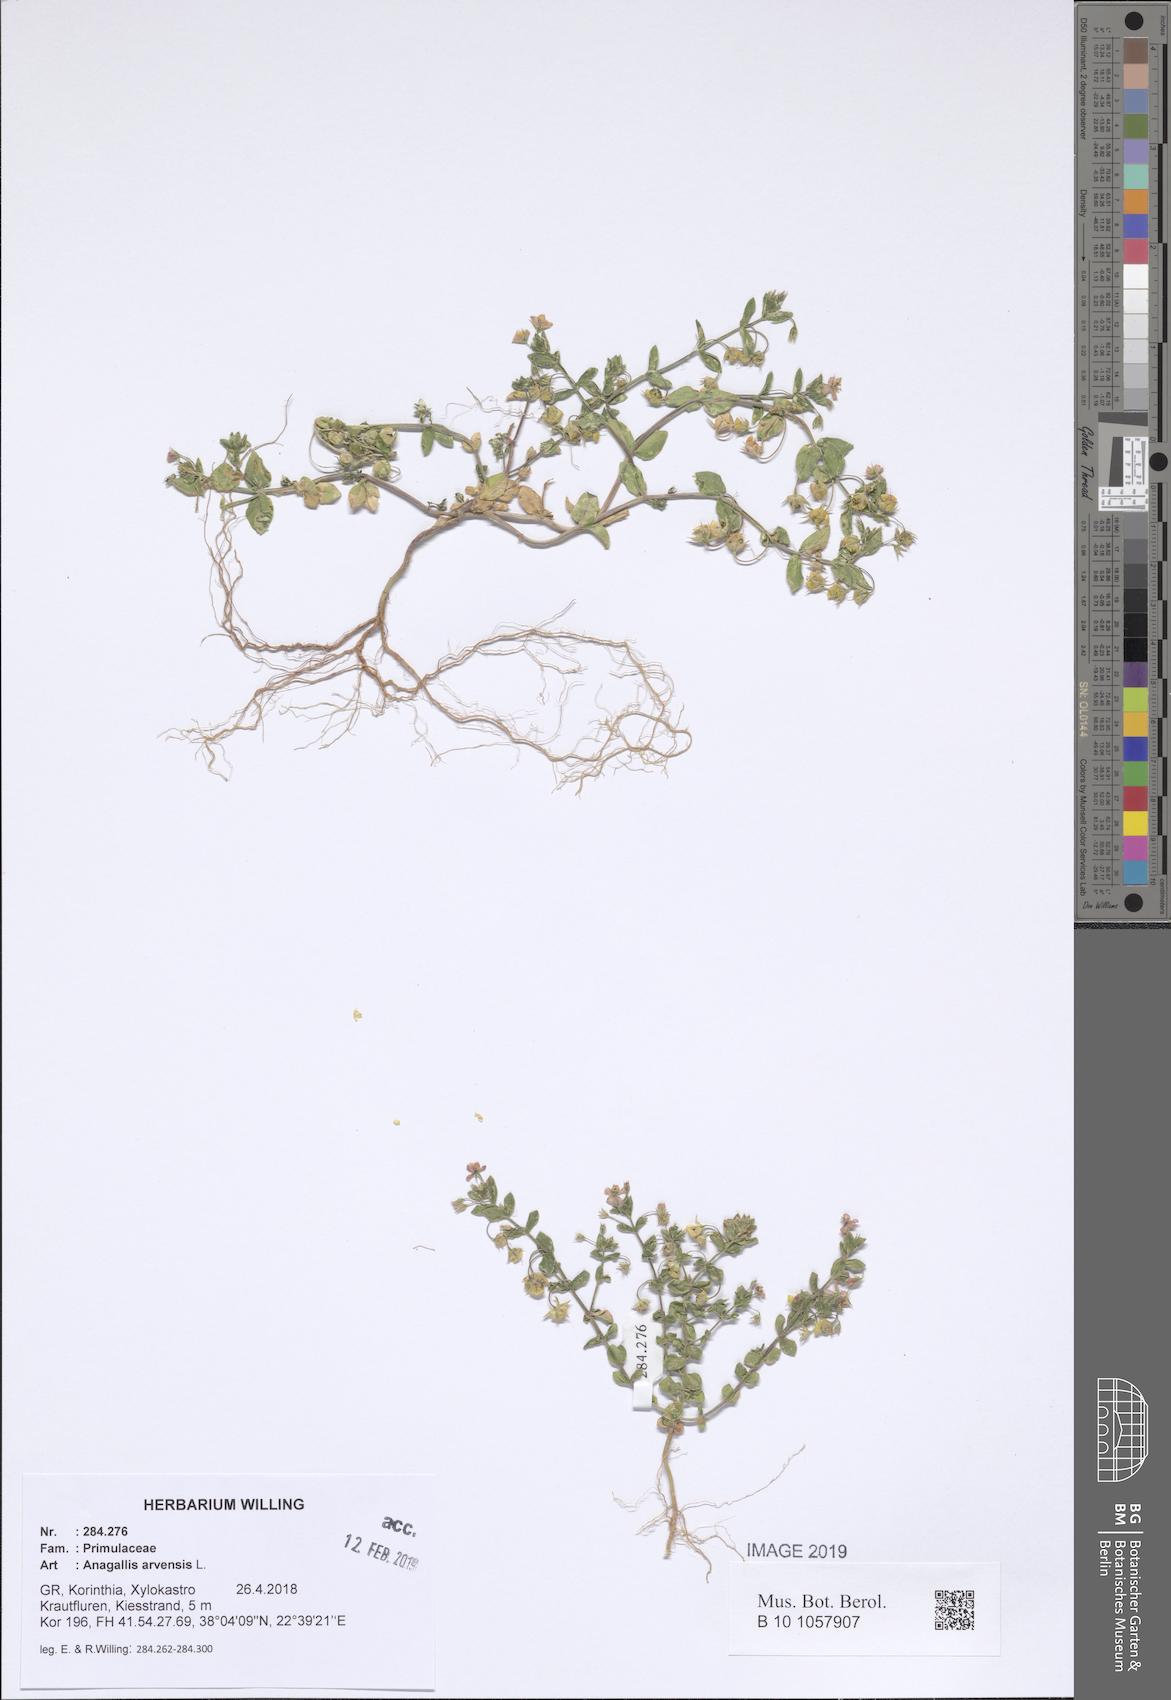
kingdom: Plantae
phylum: Tracheophyta
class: Magnoliopsida
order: Ericales
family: Primulaceae
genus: Lysimachia
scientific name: Lysimachia arvensis
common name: Scarlet pimpernel
